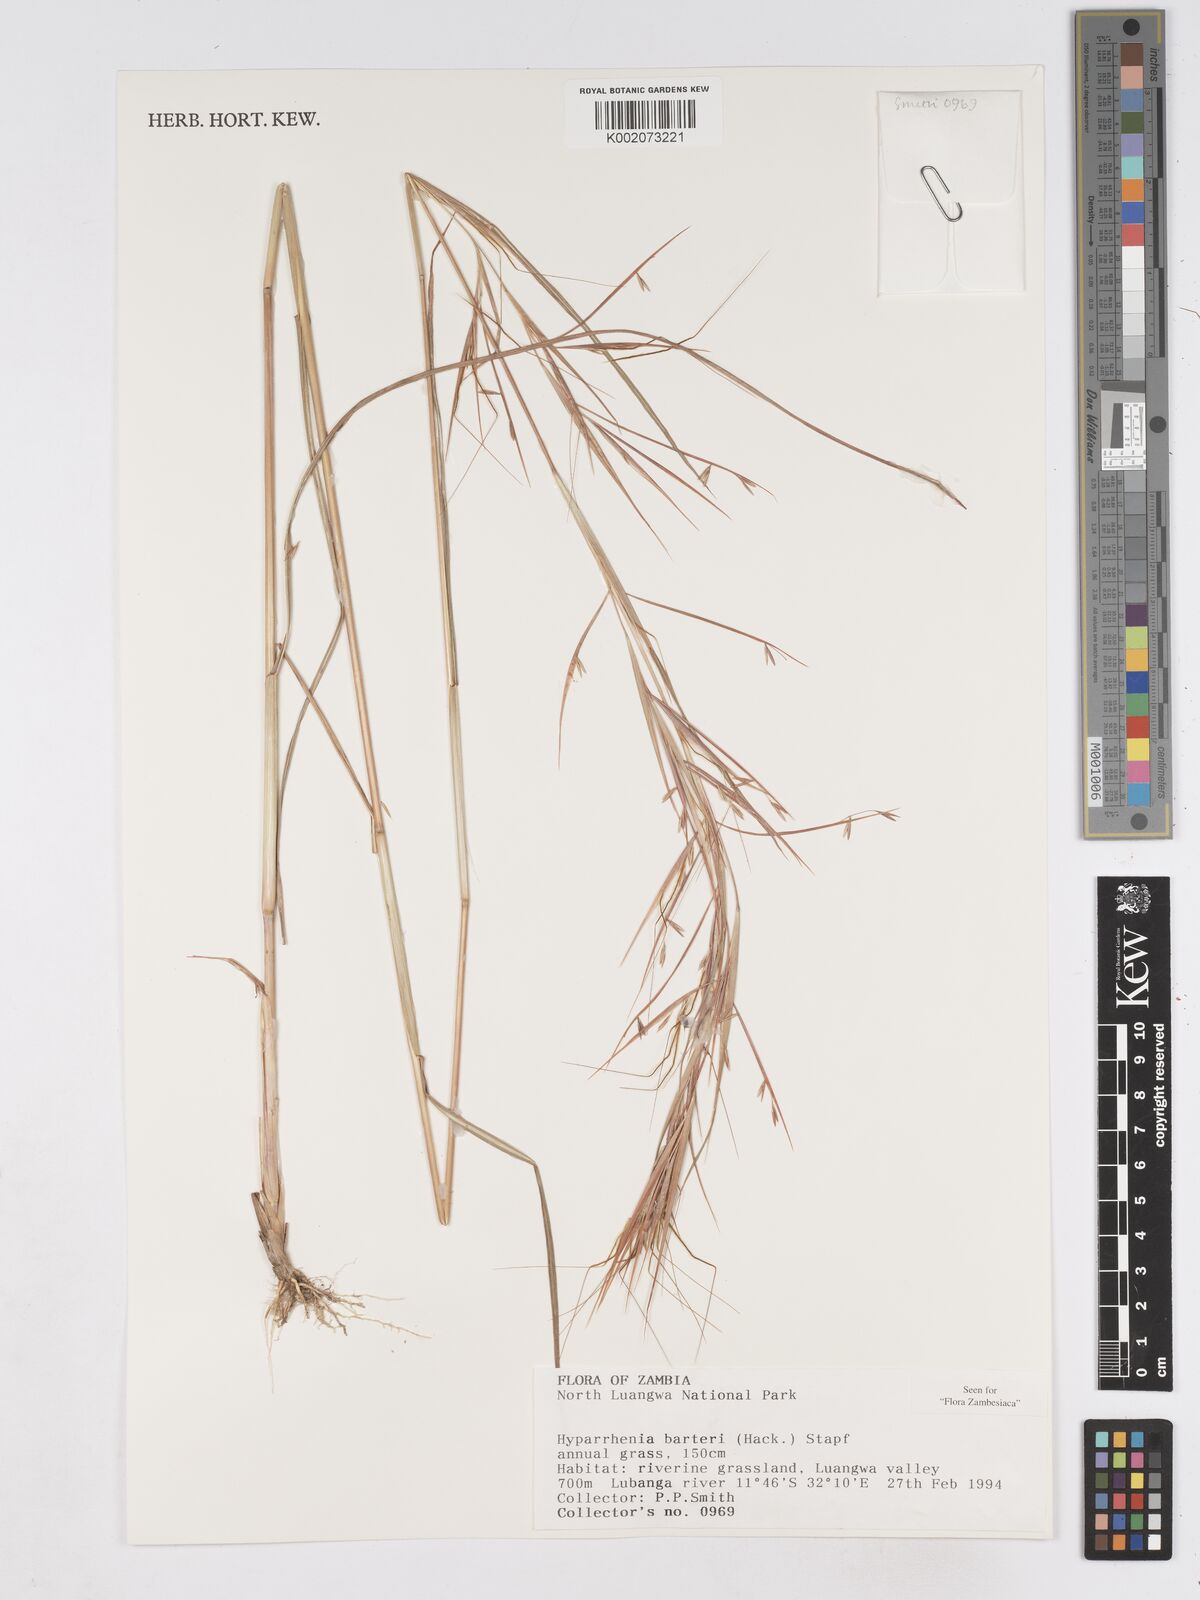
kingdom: Plantae
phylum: Tracheophyta
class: Liliopsida
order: Poales
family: Poaceae
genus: Hyparrhenia
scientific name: Hyparrhenia barteri
